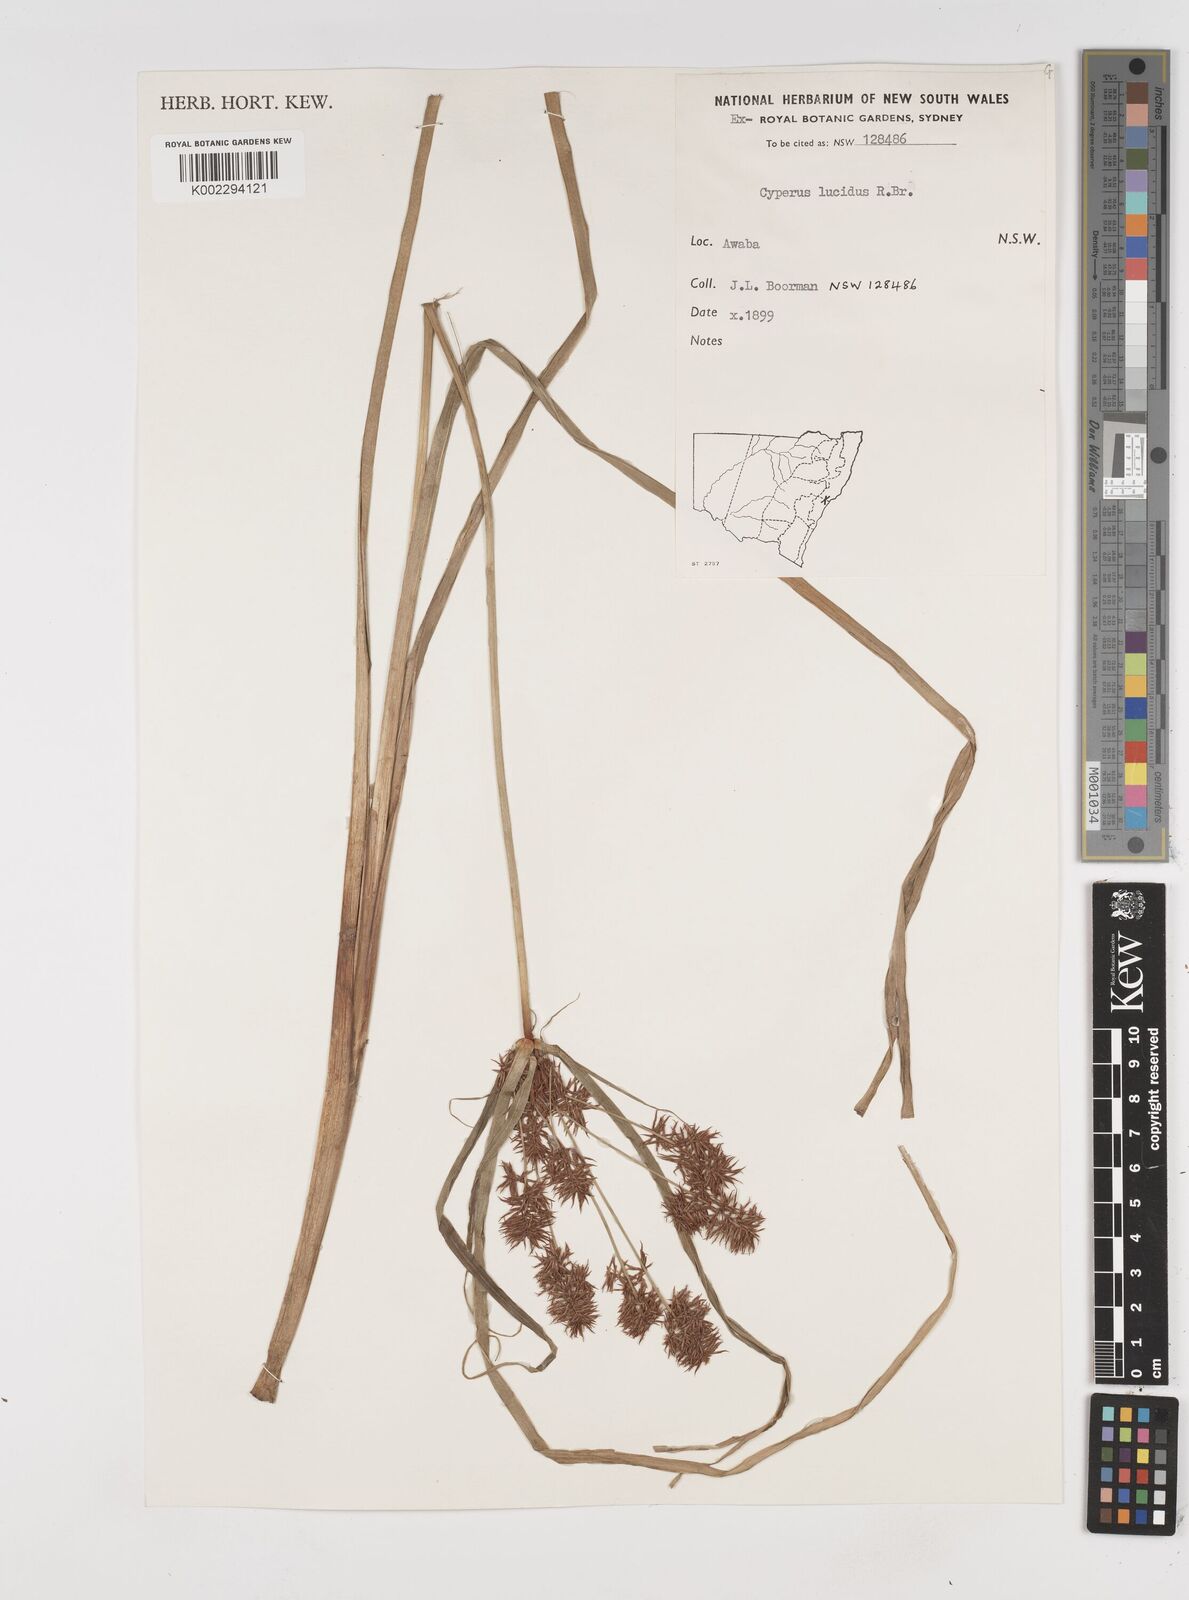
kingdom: Plantae
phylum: Tracheophyta
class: Liliopsida
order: Poales
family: Cyperaceae
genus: Cyperus
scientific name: Cyperus lucidus
